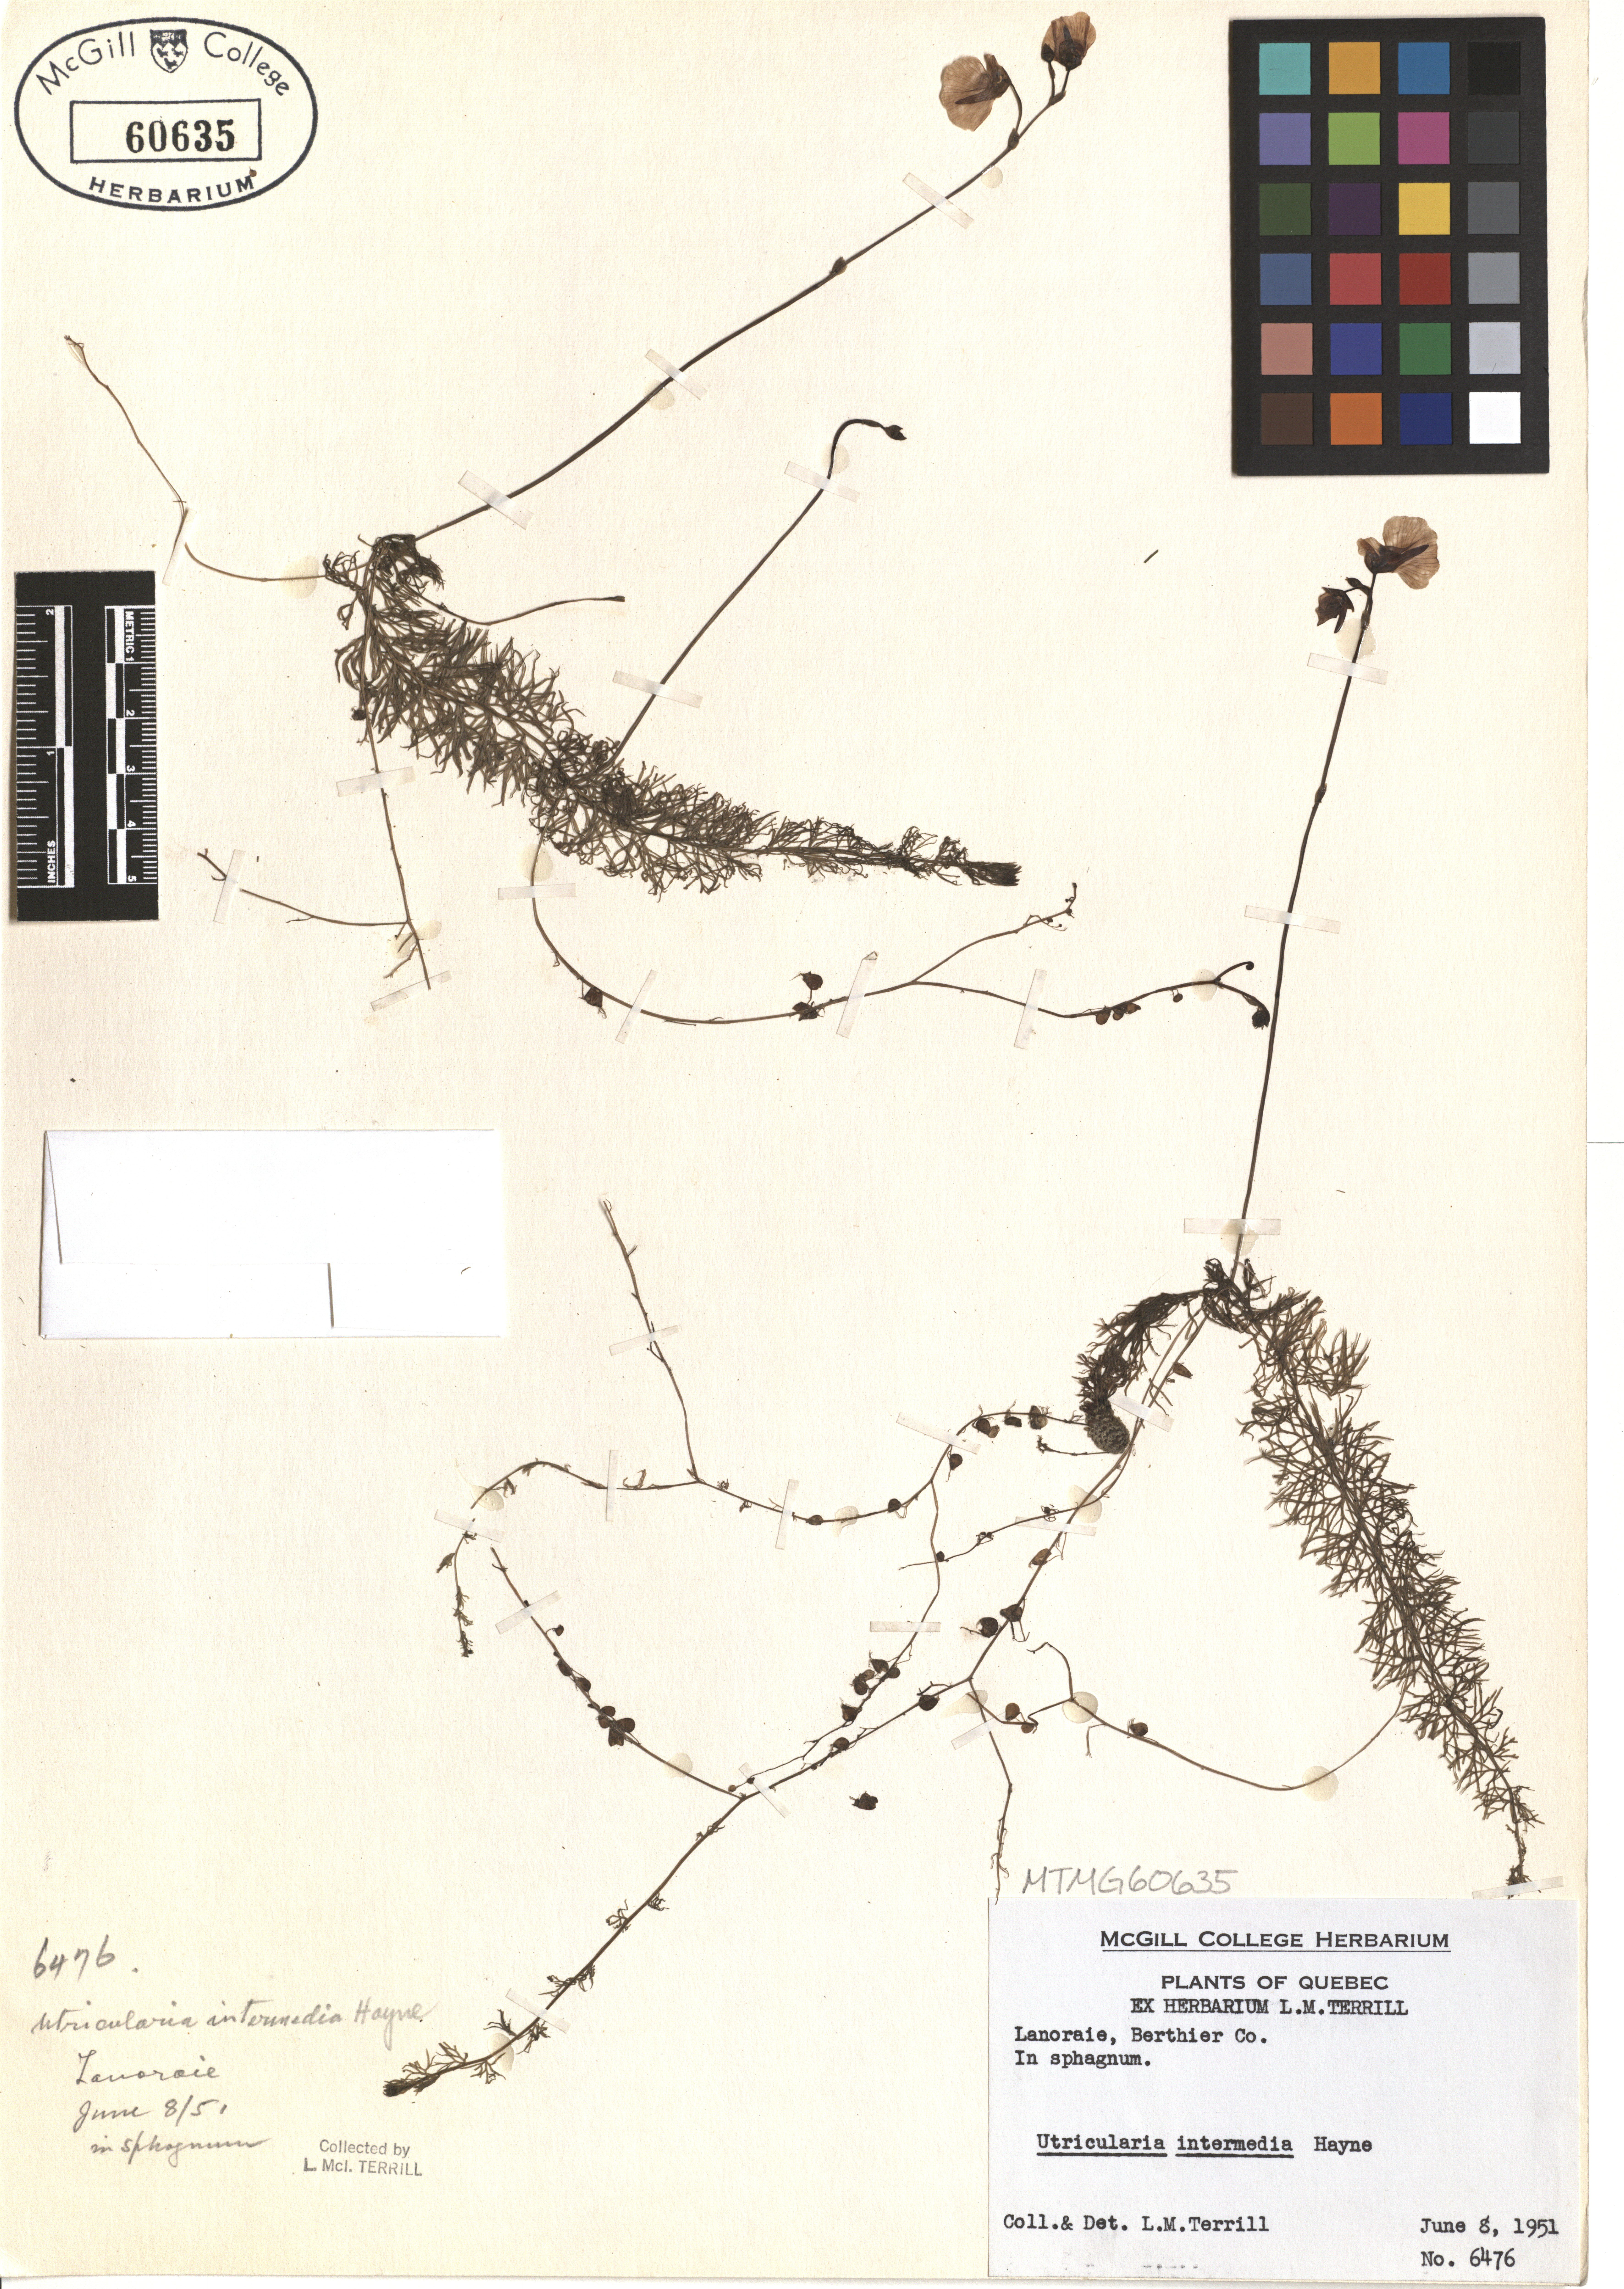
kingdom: Plantae
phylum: Tracheophyta
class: Magnoliopsida
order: Lamiales
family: Lentibulariaceae
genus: Utricularia
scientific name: Utricularia intermedia
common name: Intermediate bladderwort
